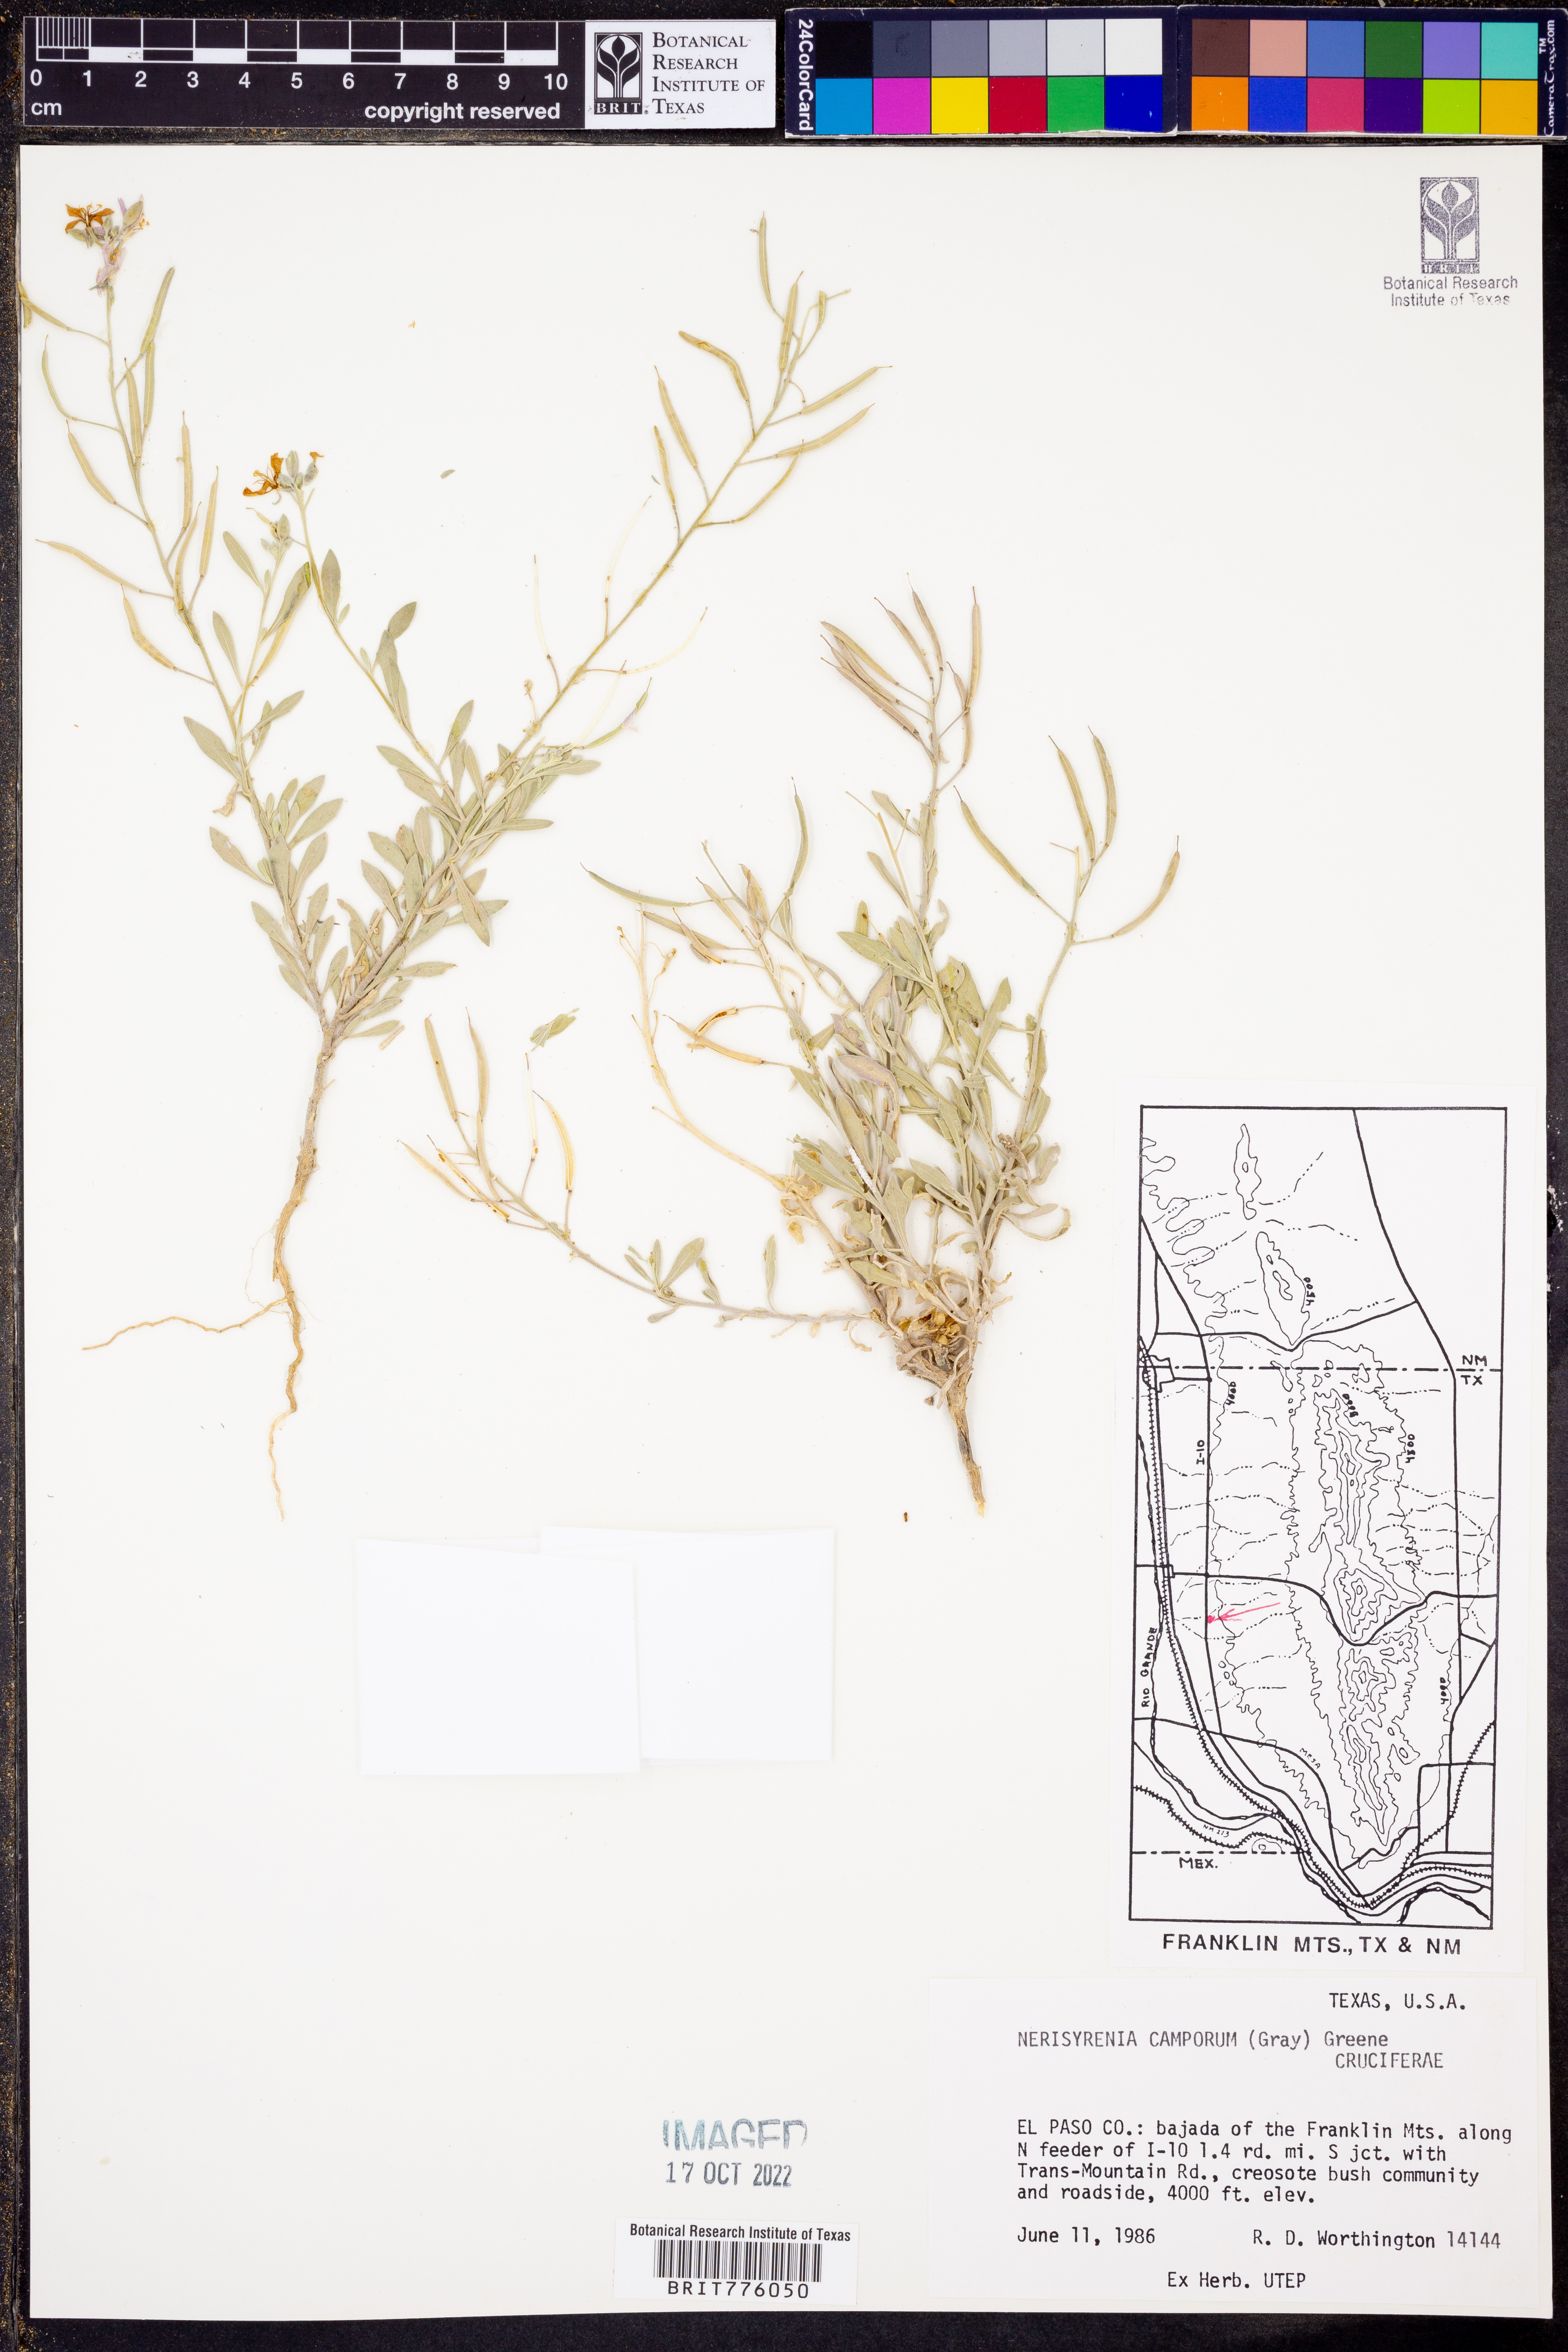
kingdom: Plantae
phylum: Tracheophyta
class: Magnoliopsida
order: Brassicales
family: Brassicaceae
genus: Nerisyrenia
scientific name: Nerisyrenia camporum
